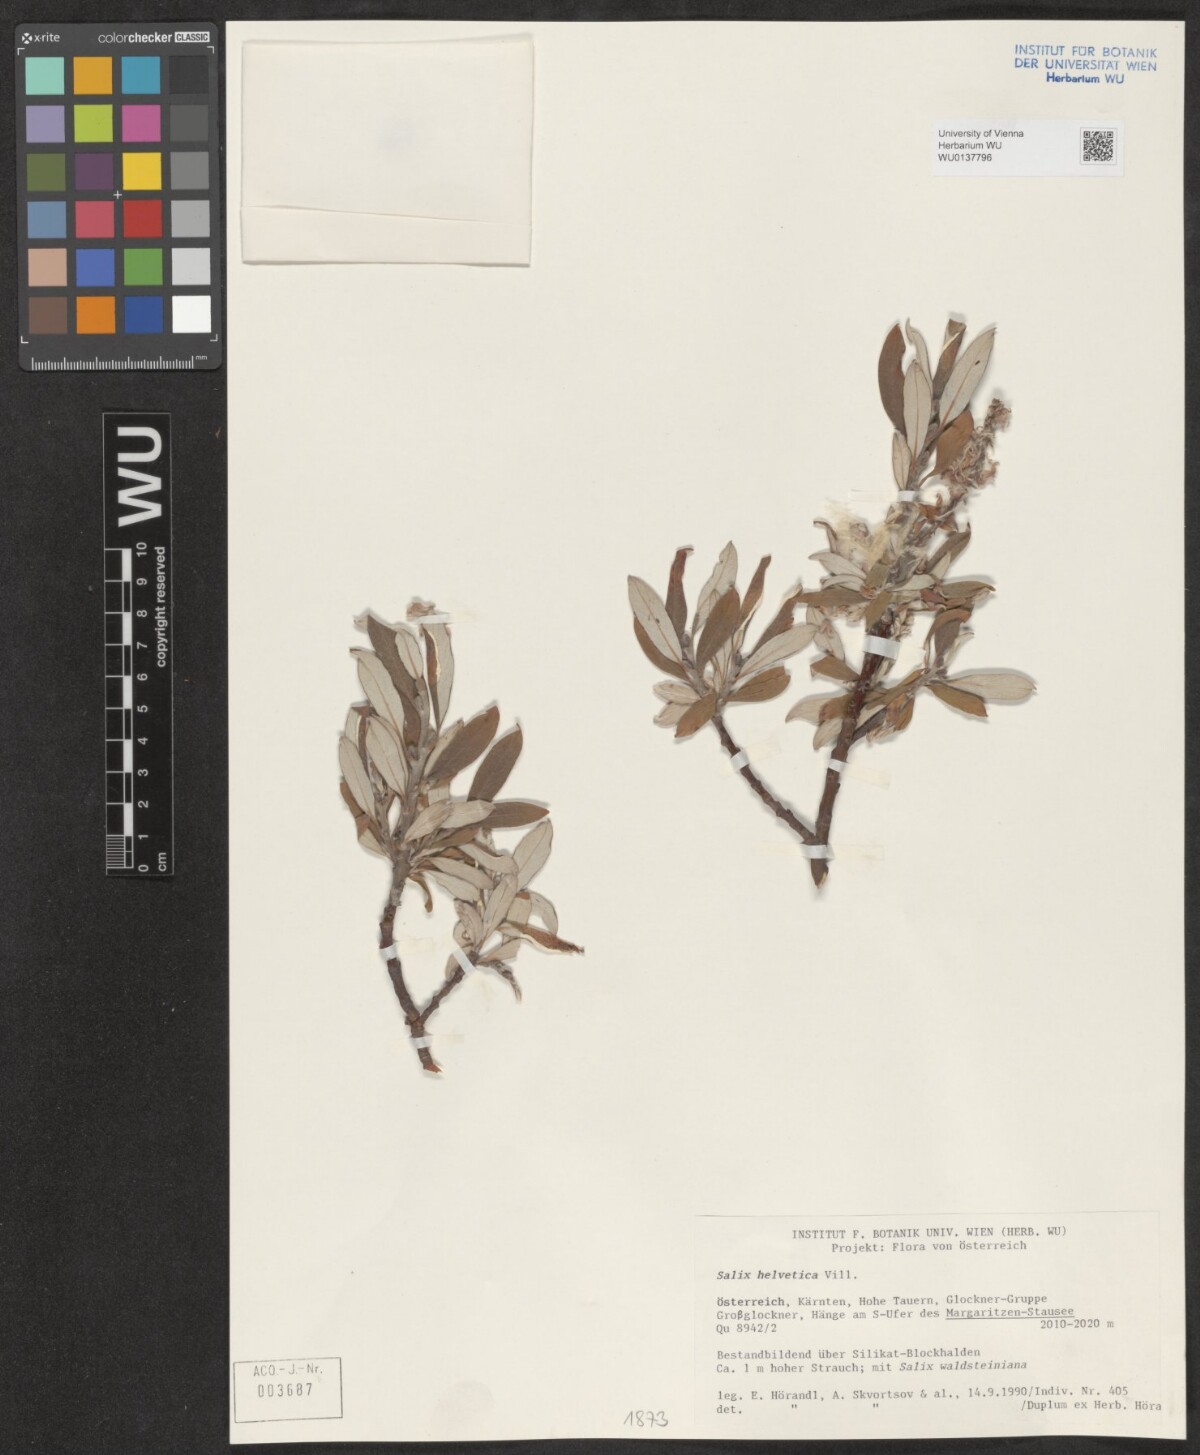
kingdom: Plantae
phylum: Tracheophyta
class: Magnoliopsida
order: Malpighiales
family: Salicaceae
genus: Salix
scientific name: Salix helvetica
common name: Swiss willow
